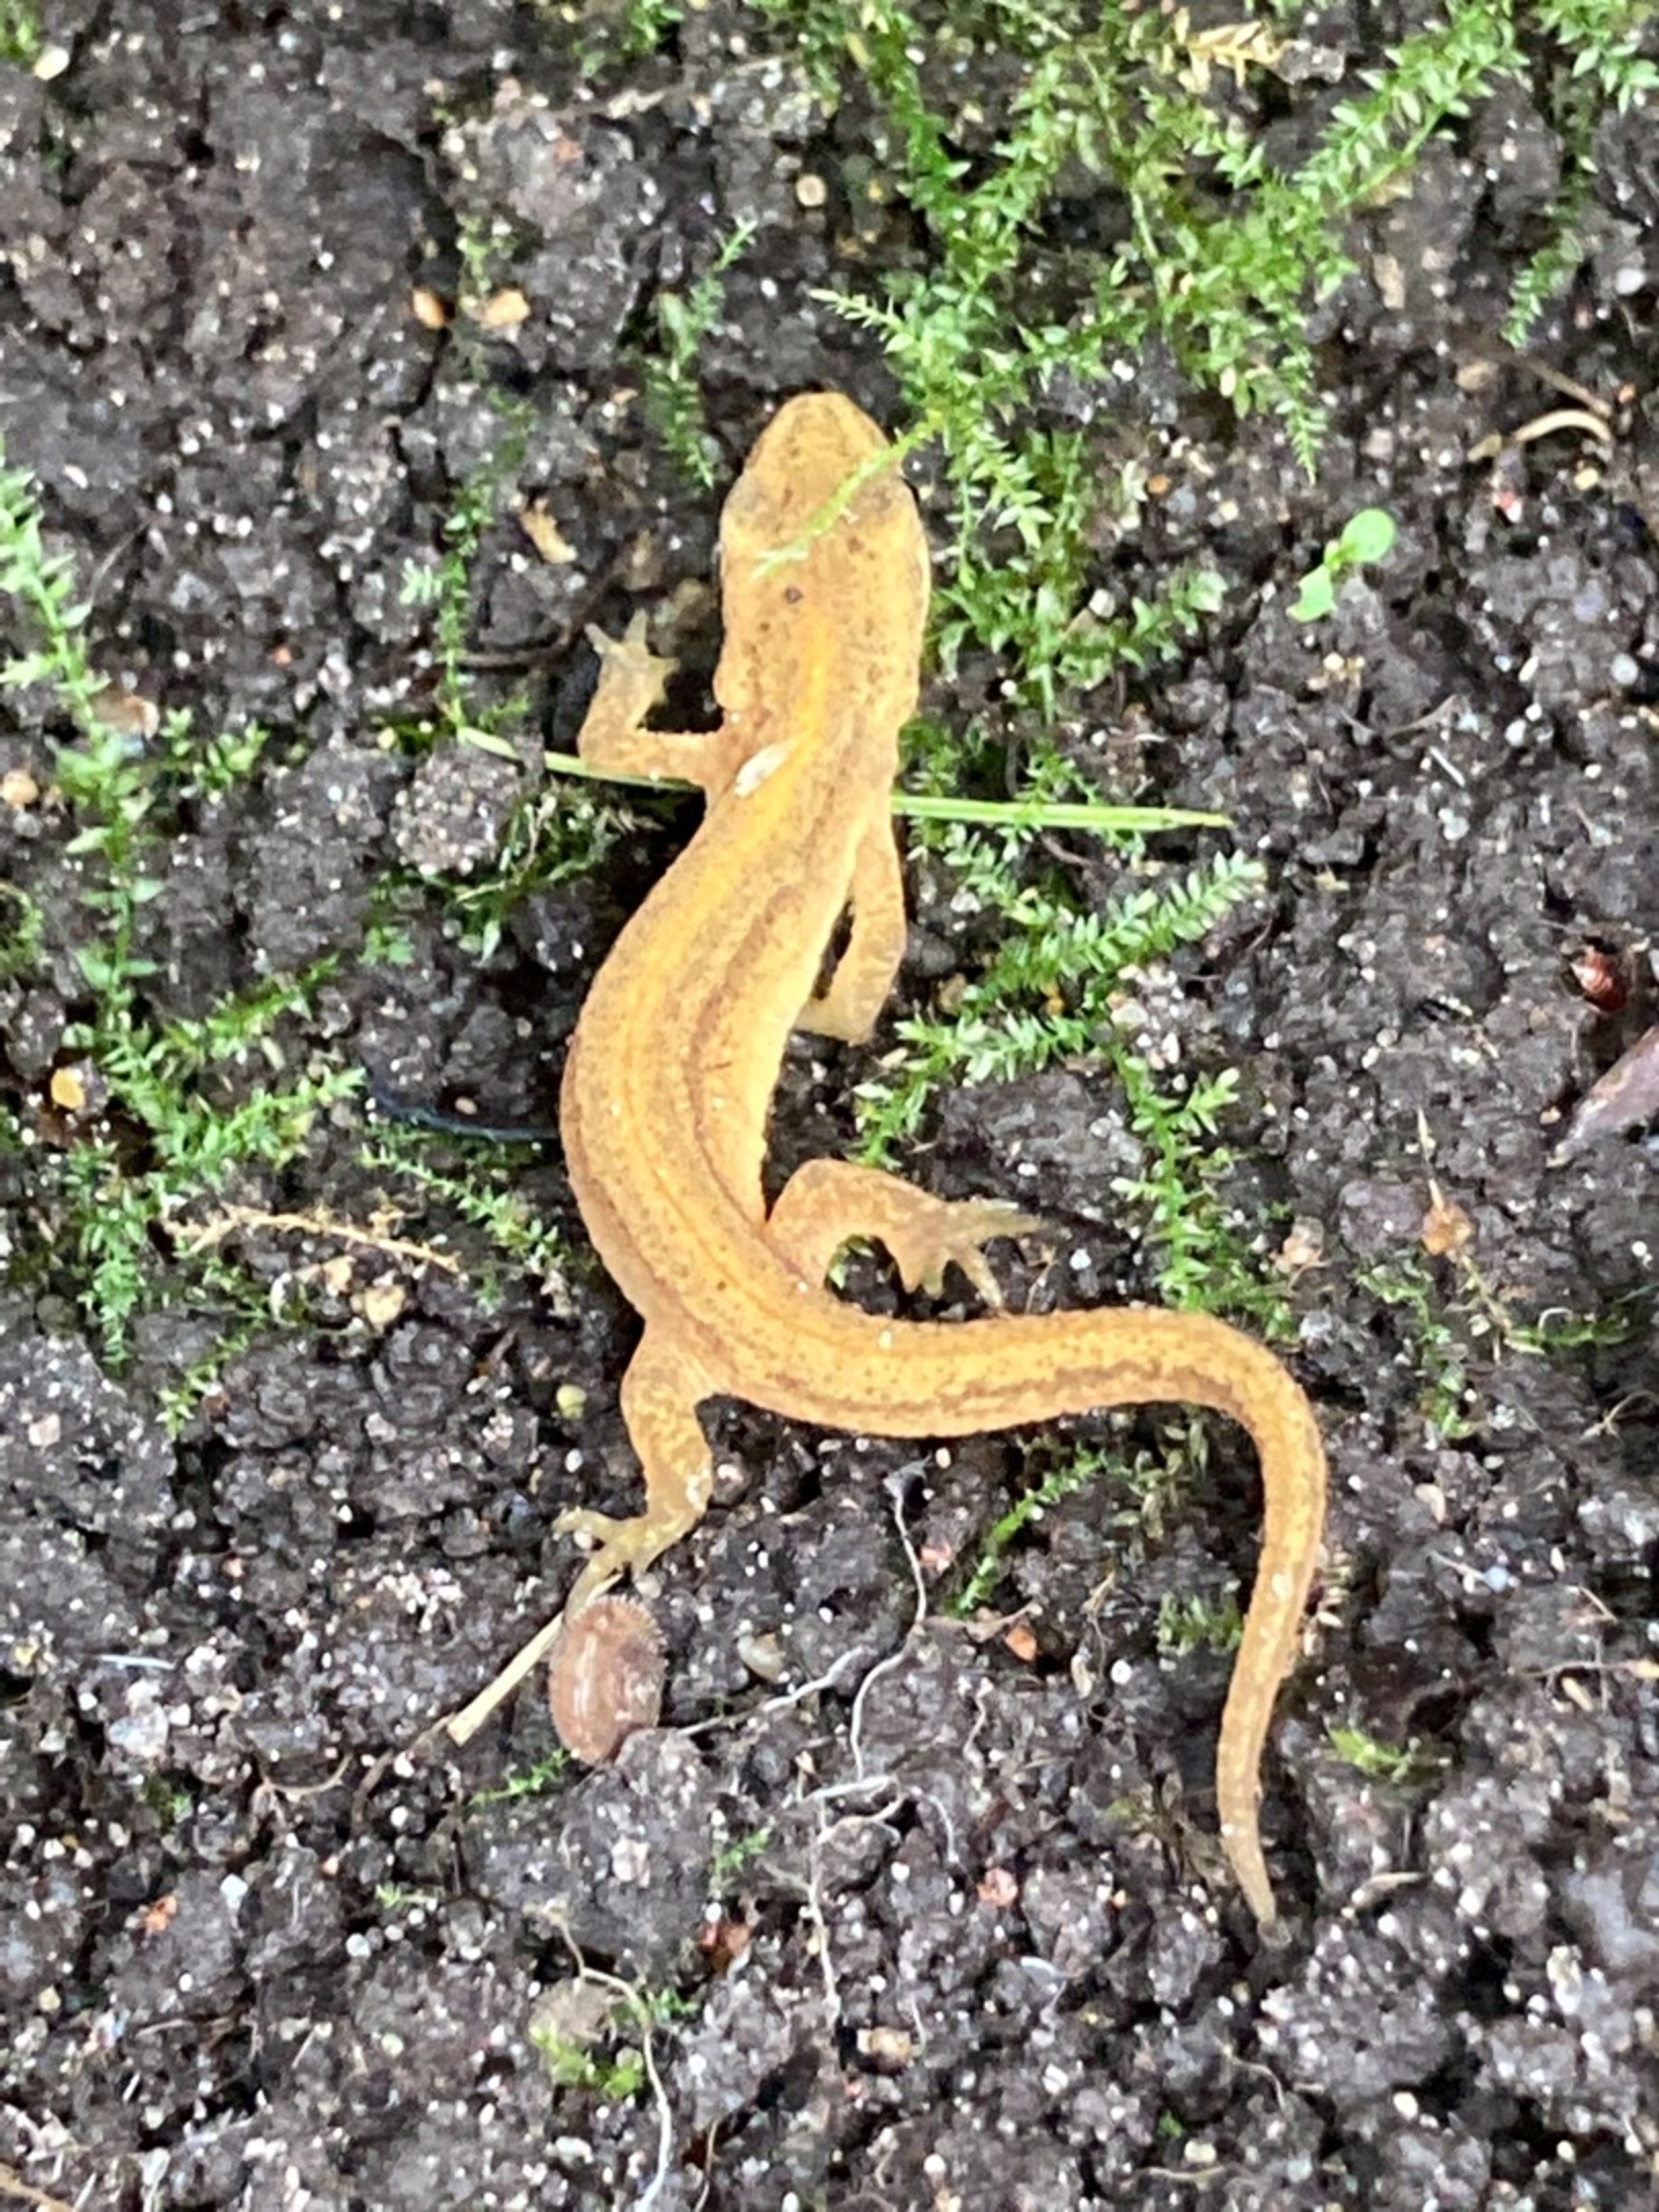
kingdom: Animalia
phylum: Arthropoda
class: Insecta
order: Lepidoptera
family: Nymphalidae
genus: Polygonia
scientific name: Polygonia c-album
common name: Det hvide C
